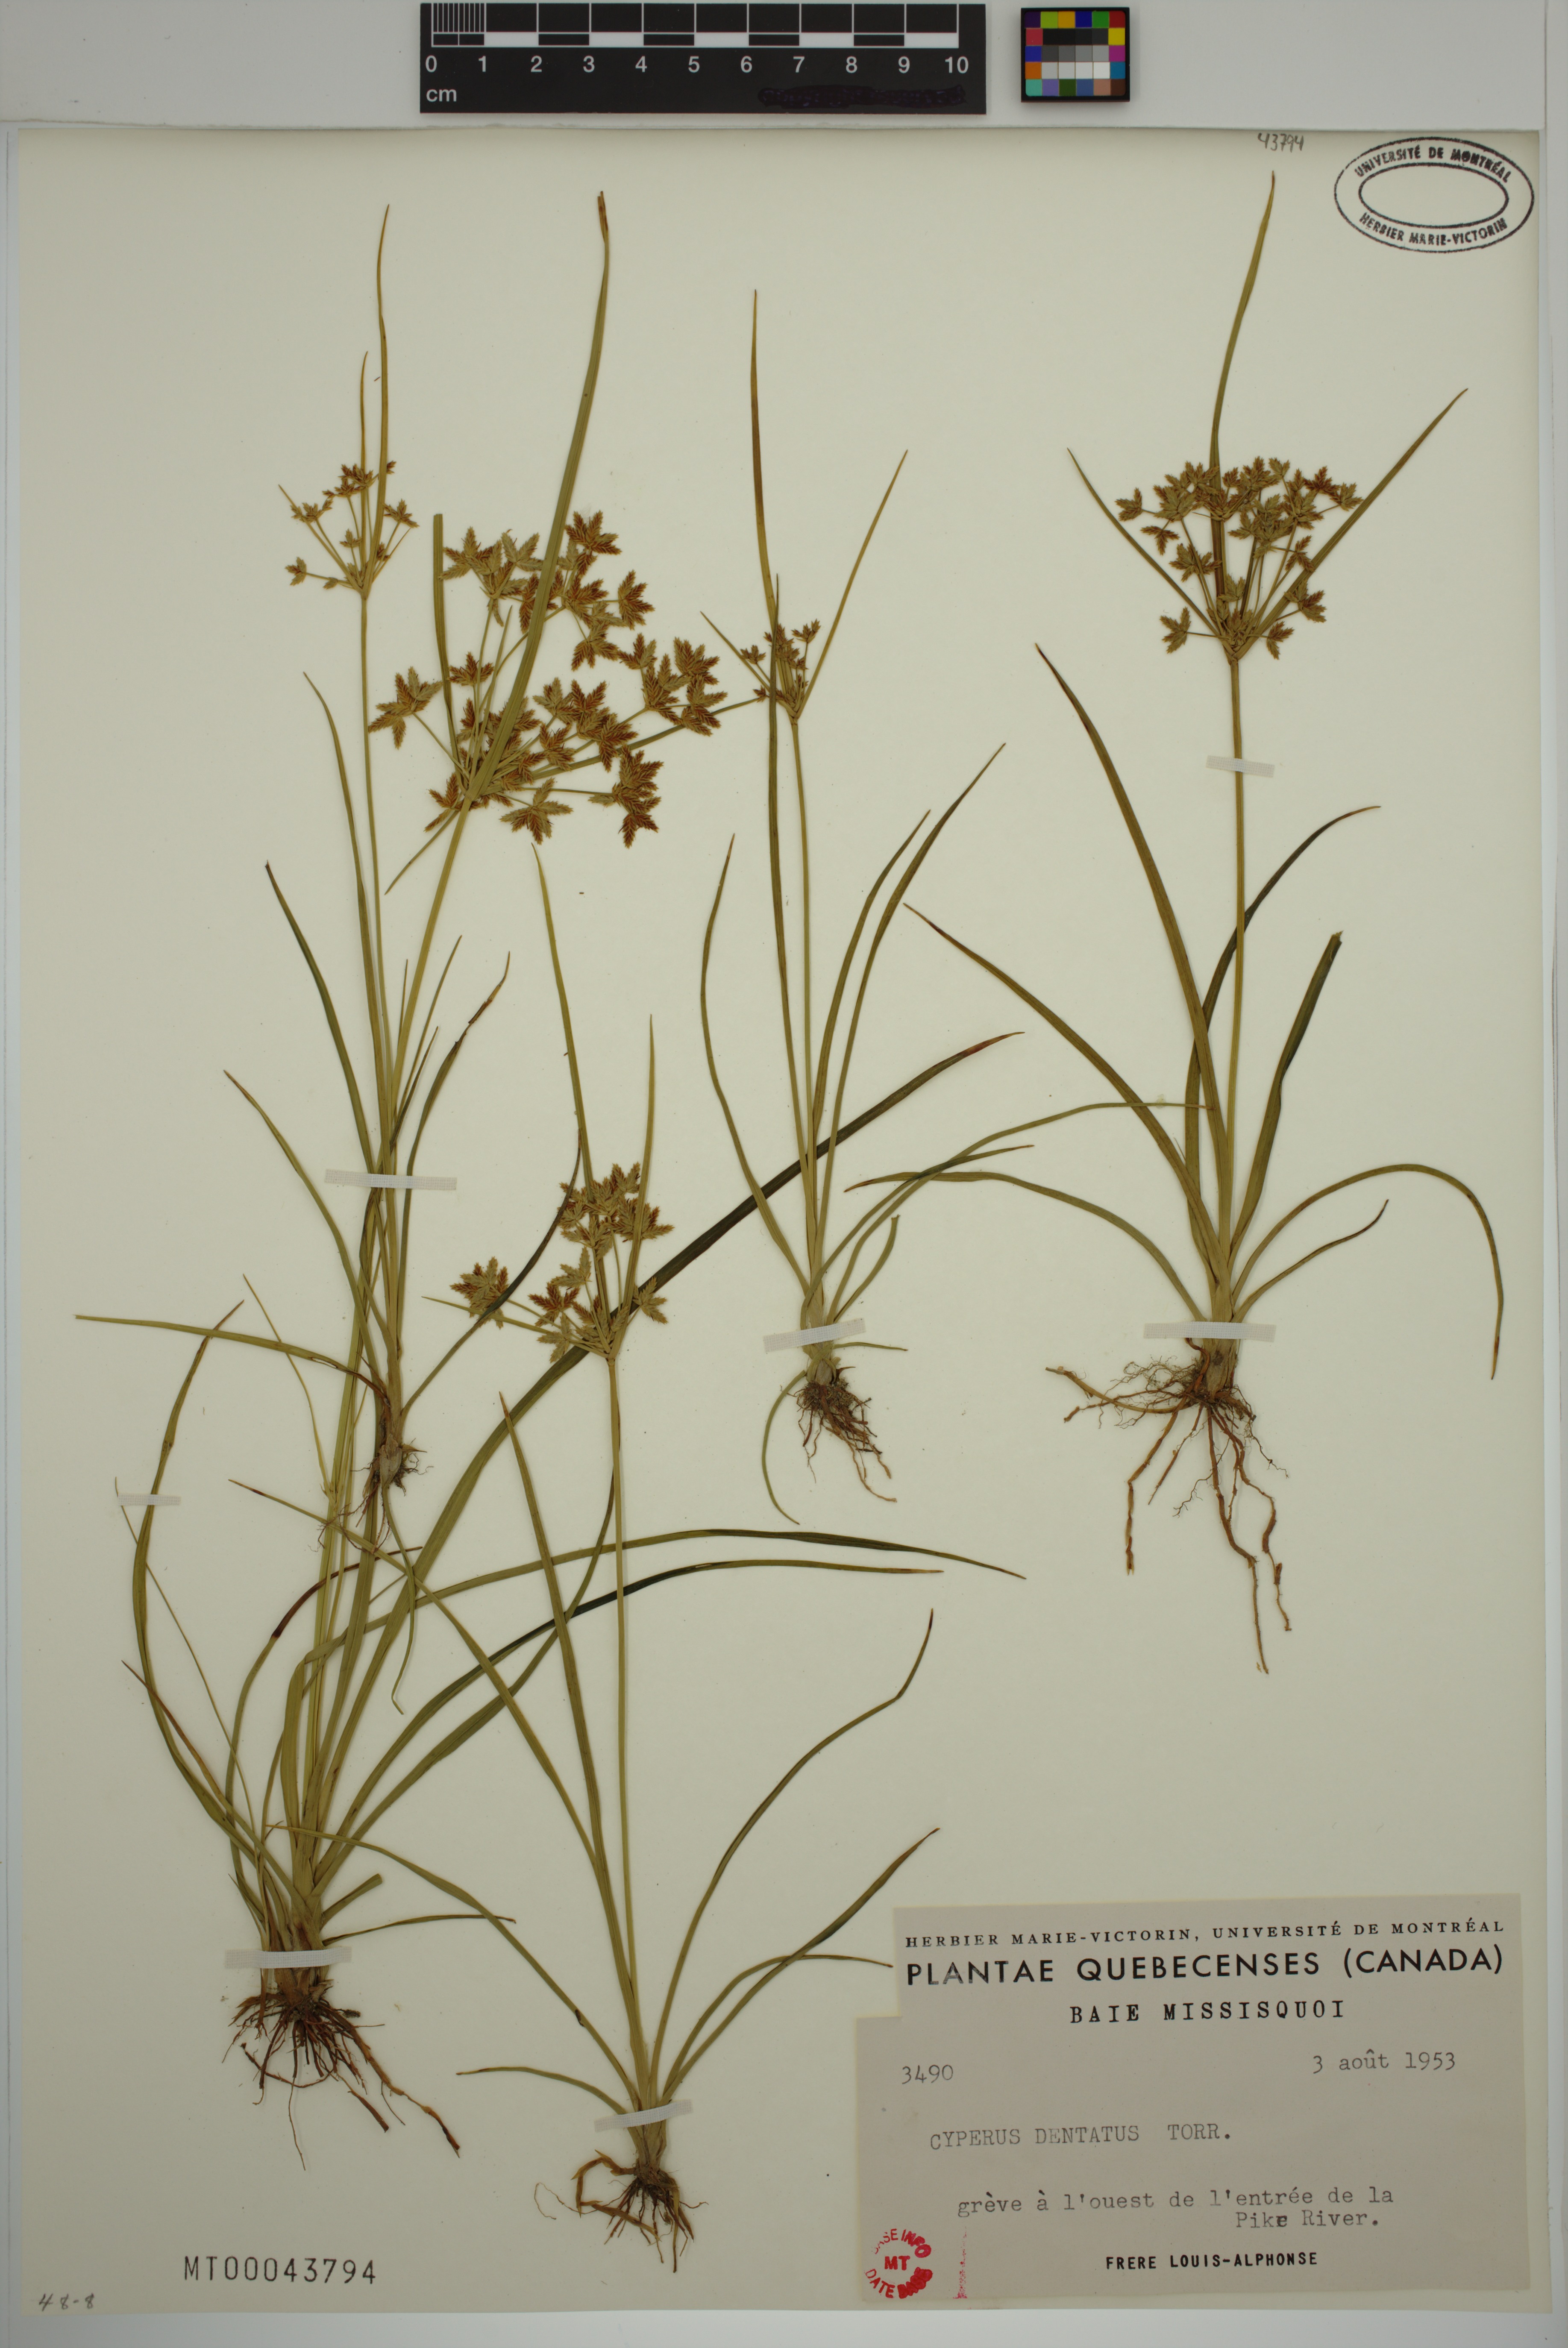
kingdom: Plantae
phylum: Tracheophyta
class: Liliopsida
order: Poales
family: Cyperaceae
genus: Cyperus
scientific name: Cyperus dentatus
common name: Dentate umbrella sedge
